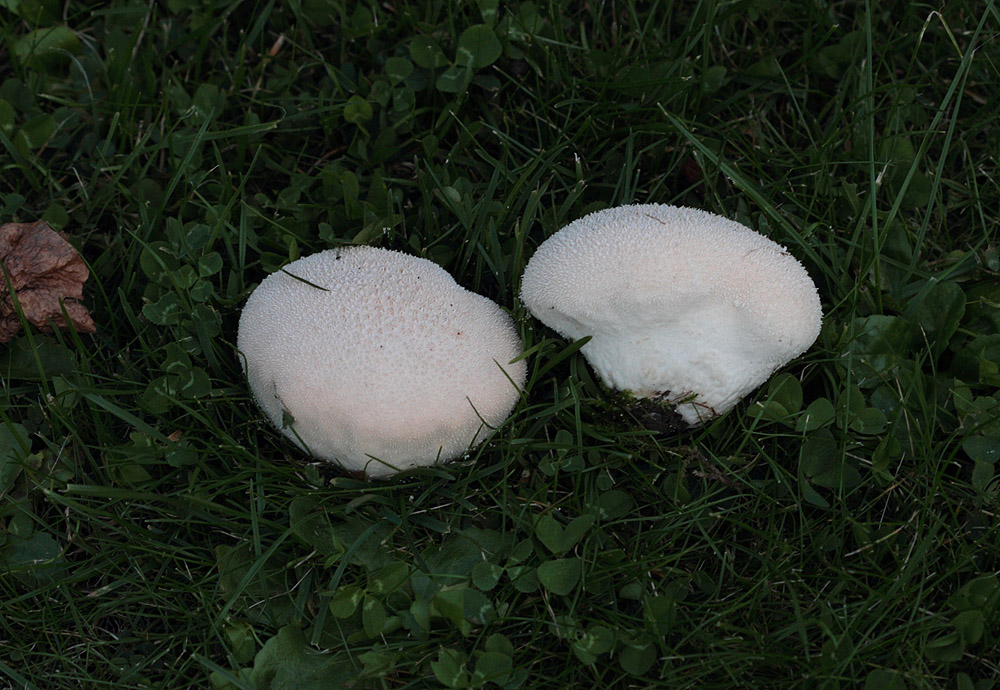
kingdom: Fungi
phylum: Basidiomycota
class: Agaricomycetes
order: Agaricales
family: Lycoperdaceae
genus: Lycoperdon
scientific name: Lycoperdon pratense
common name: flad støvbold
